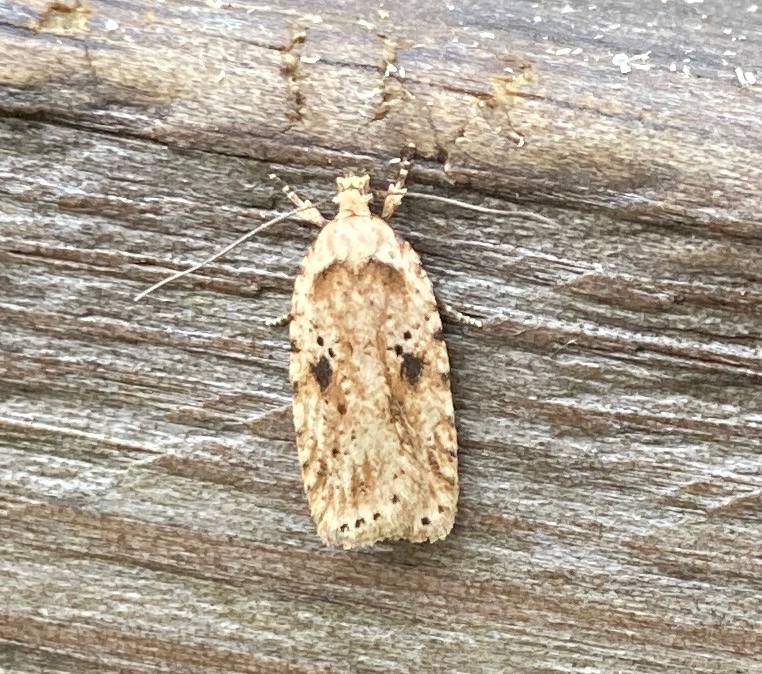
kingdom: Animalia
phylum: Arthropoda
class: Insecta
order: Lepidoptera
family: Depressariidae
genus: Agonopterix
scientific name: Agonopterix arenella
